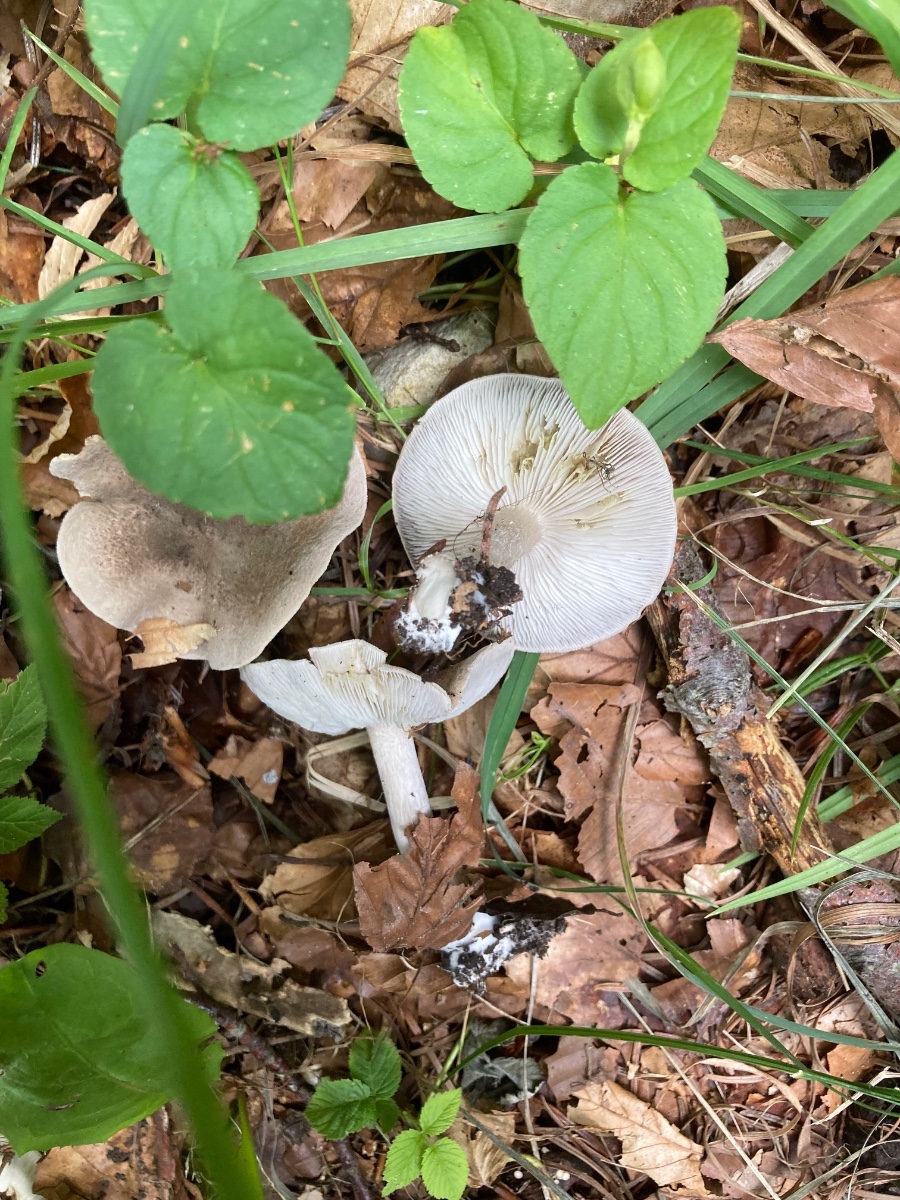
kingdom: Fungi
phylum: Basidiomycota
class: Agaricomycetes
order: Agaricales
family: Tricholomataceae
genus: Tricholoma
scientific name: Tricholoma scalpturatum
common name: gulplettet ridderhat
